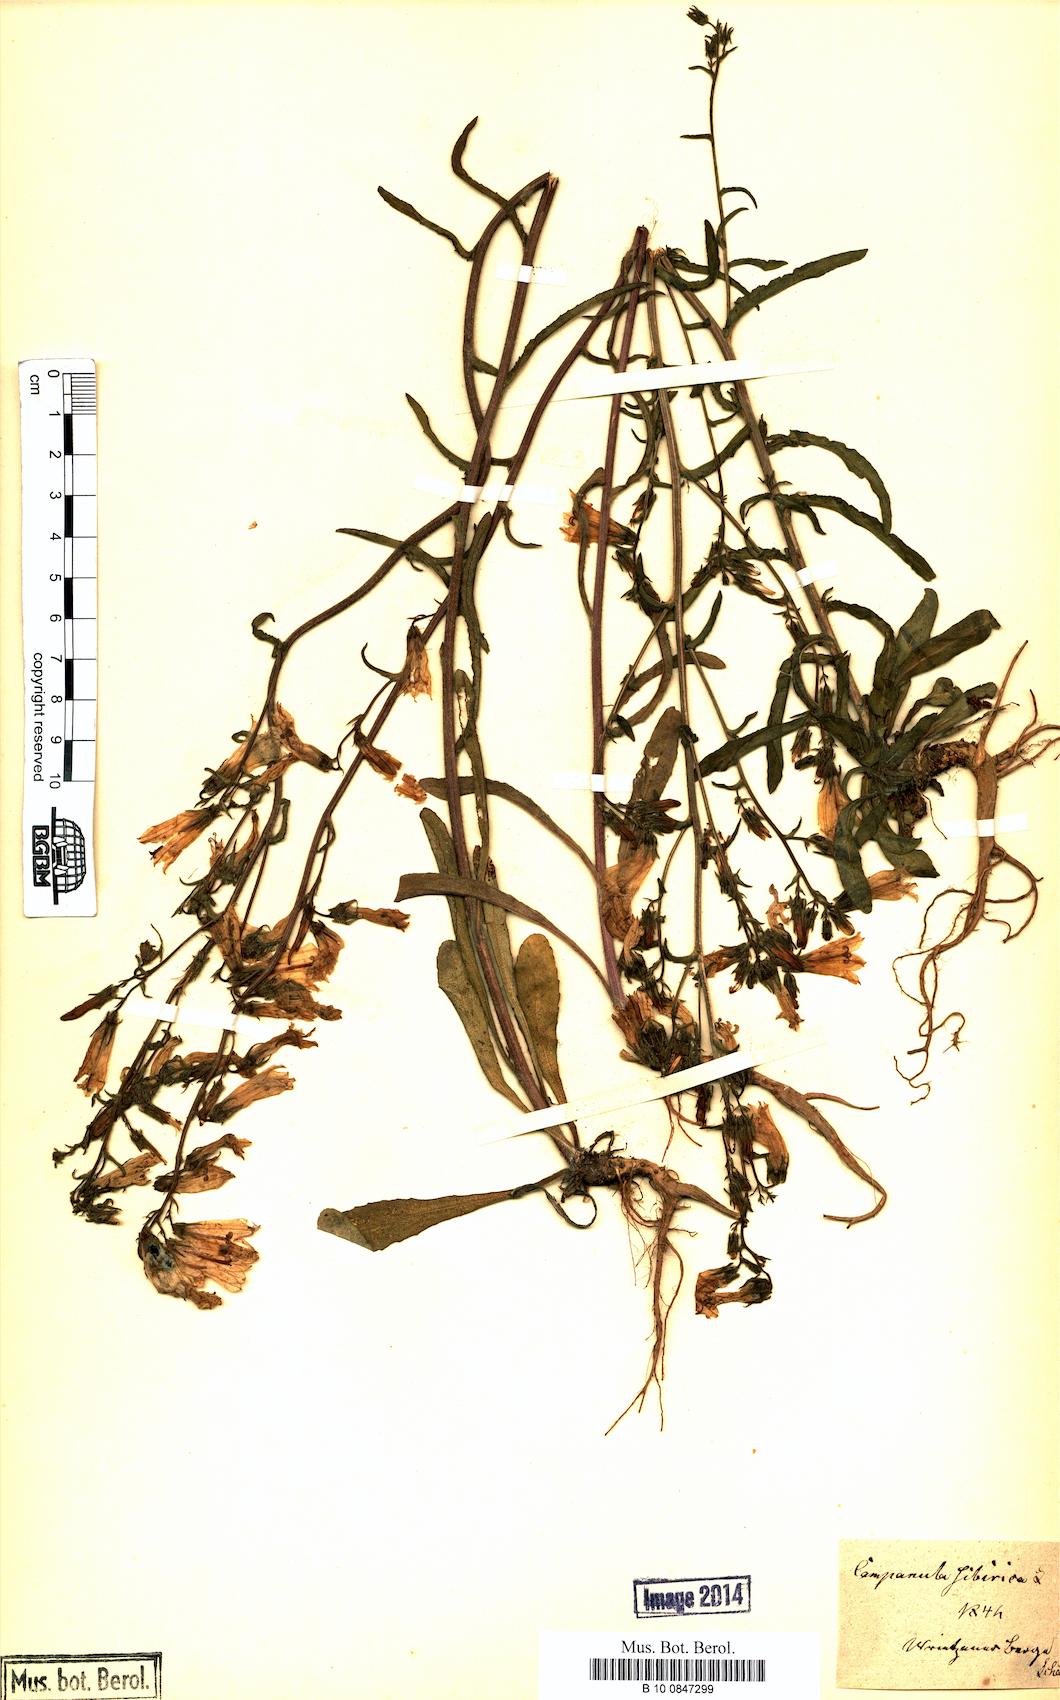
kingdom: Plantae
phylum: Tracheophyta
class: Magnoliopsida
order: Asterales
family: Campanulaceae
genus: Campanula
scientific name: Campanula sibirica
